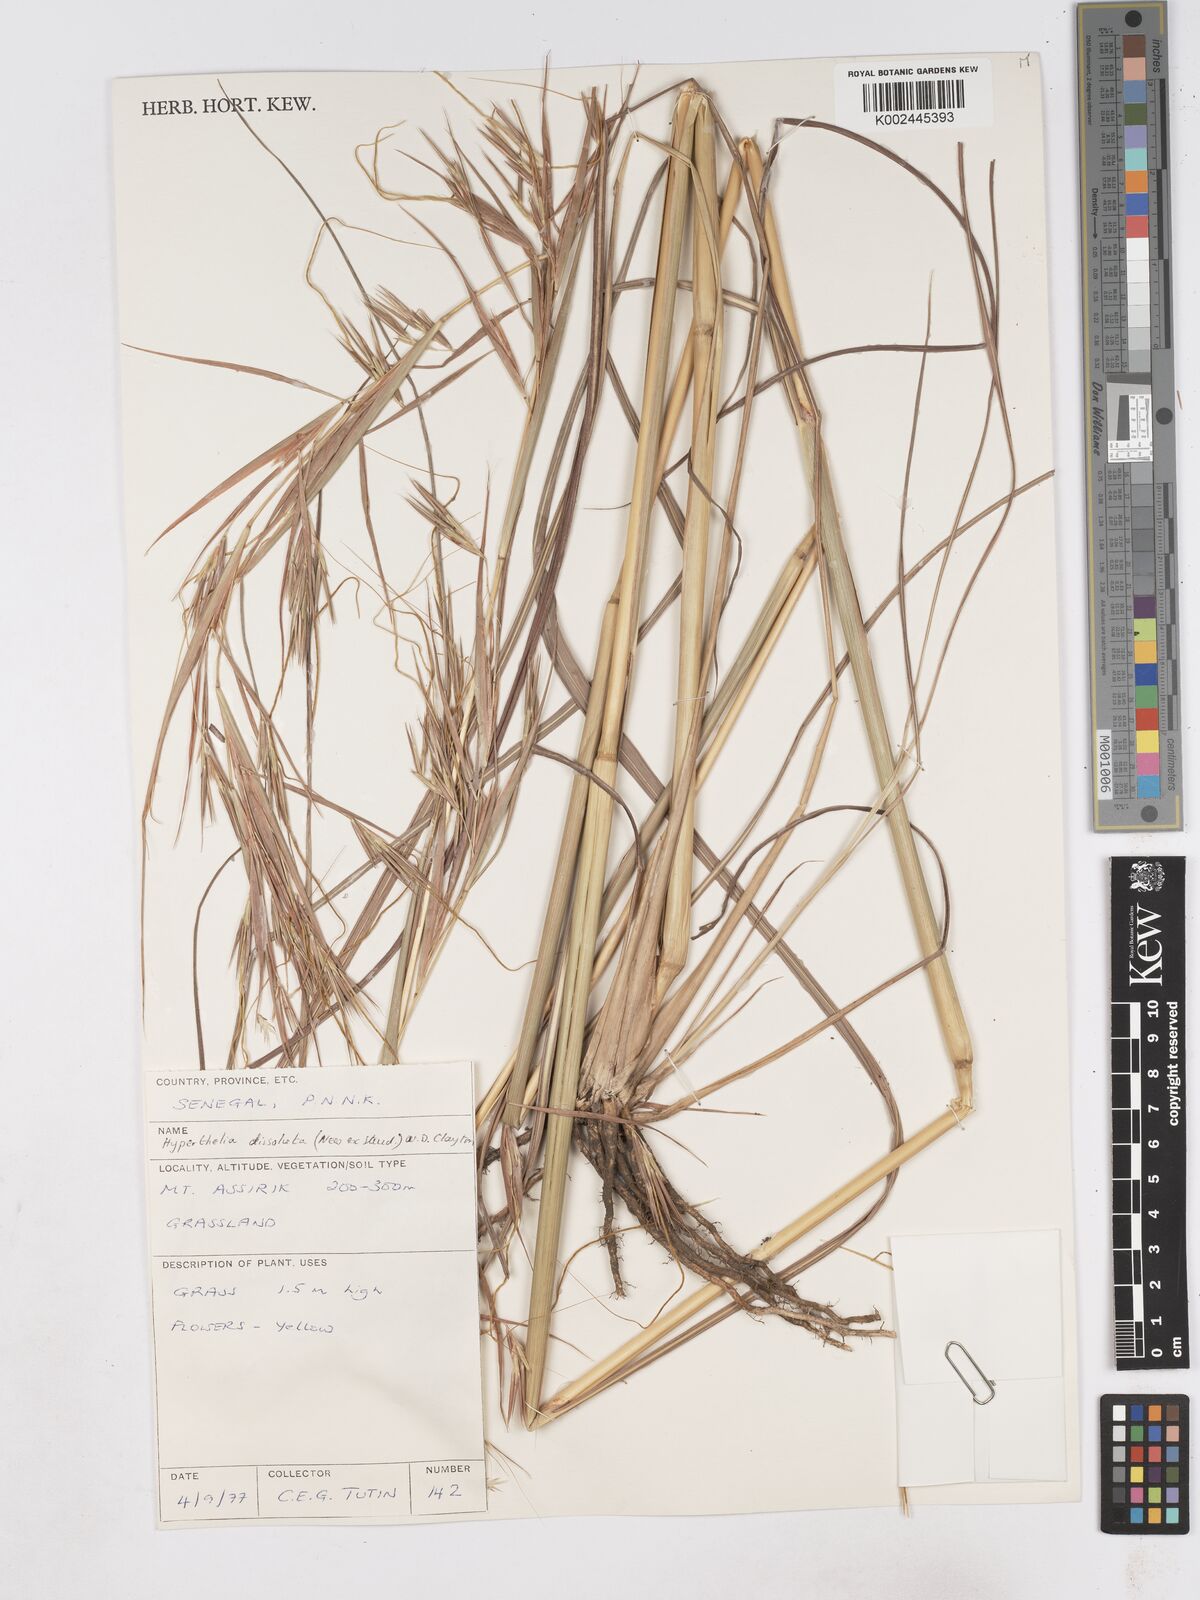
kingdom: Plantae
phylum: Tracheophyta
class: Liliopsida
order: Poales
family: Poaceae
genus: Hyperthelia
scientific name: Hyperthelia dissoluta
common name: Yellow thatching grass
